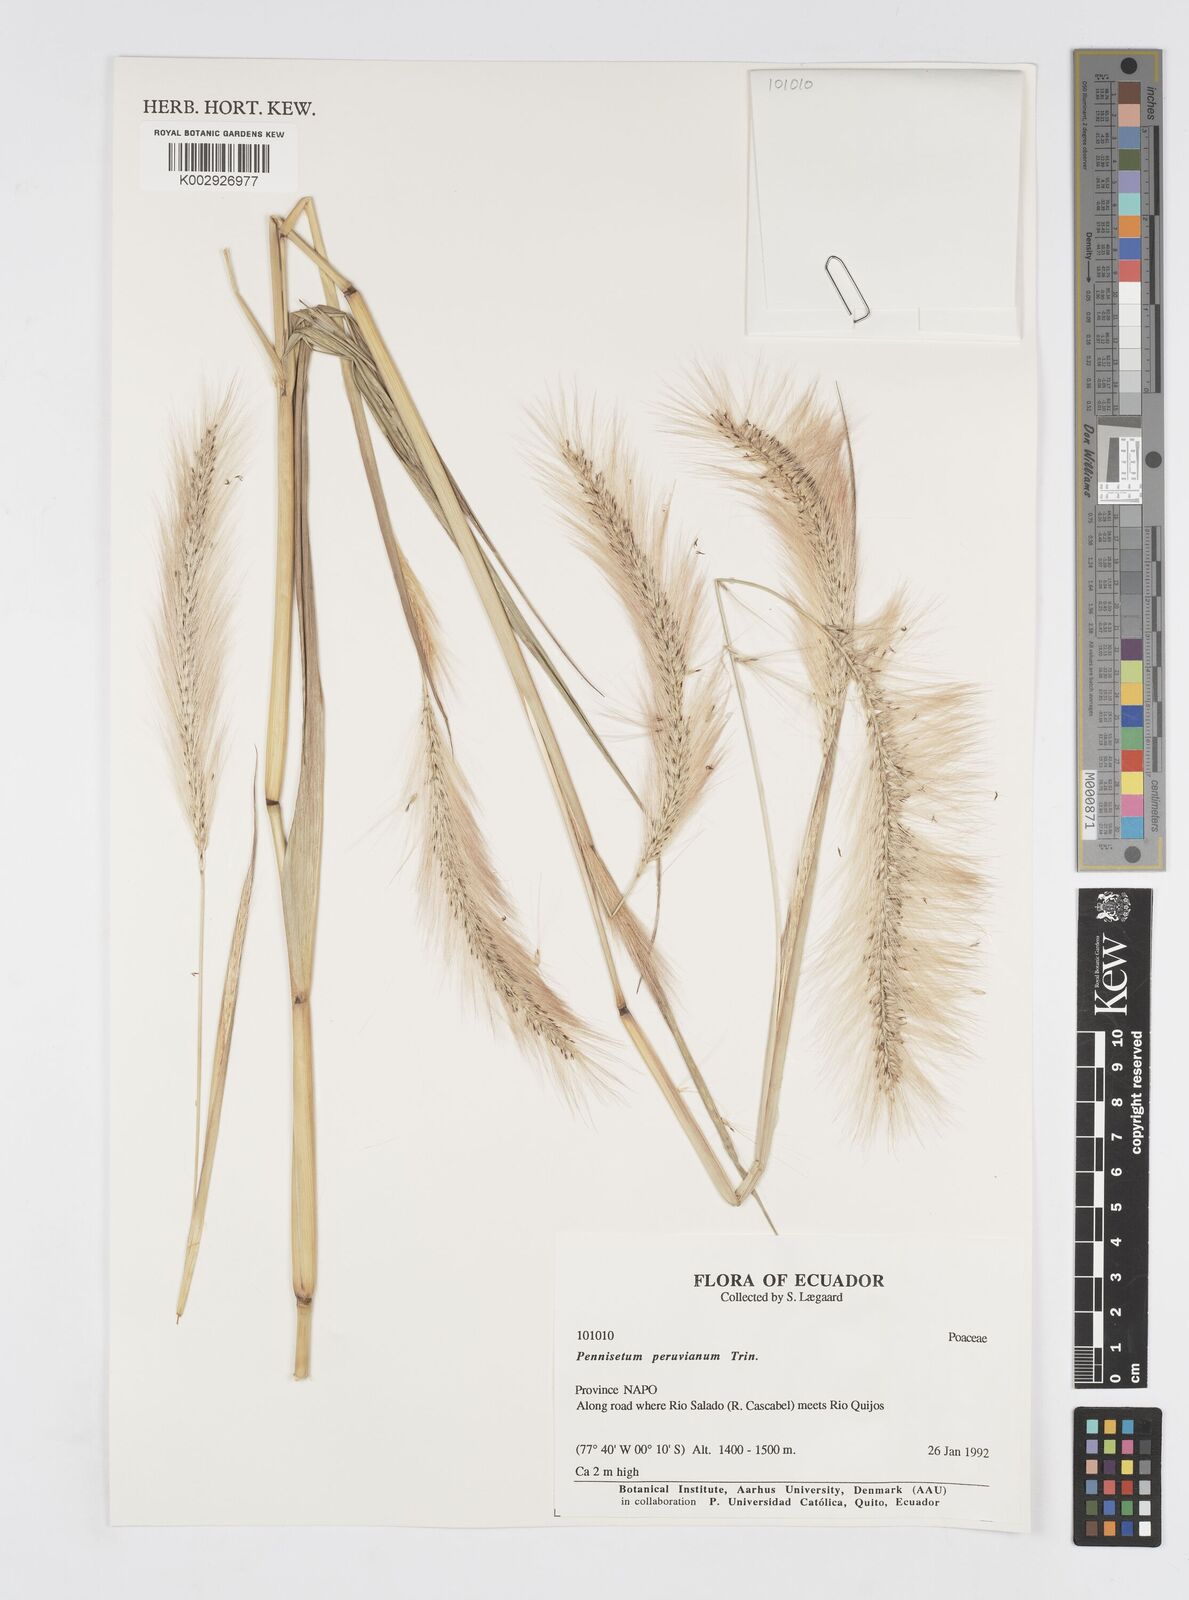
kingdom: Plantae
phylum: Tracheophyta
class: Liliopsida
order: Poales
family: Poaceae
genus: Cenchrus
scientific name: Cenchrus peruvianus
